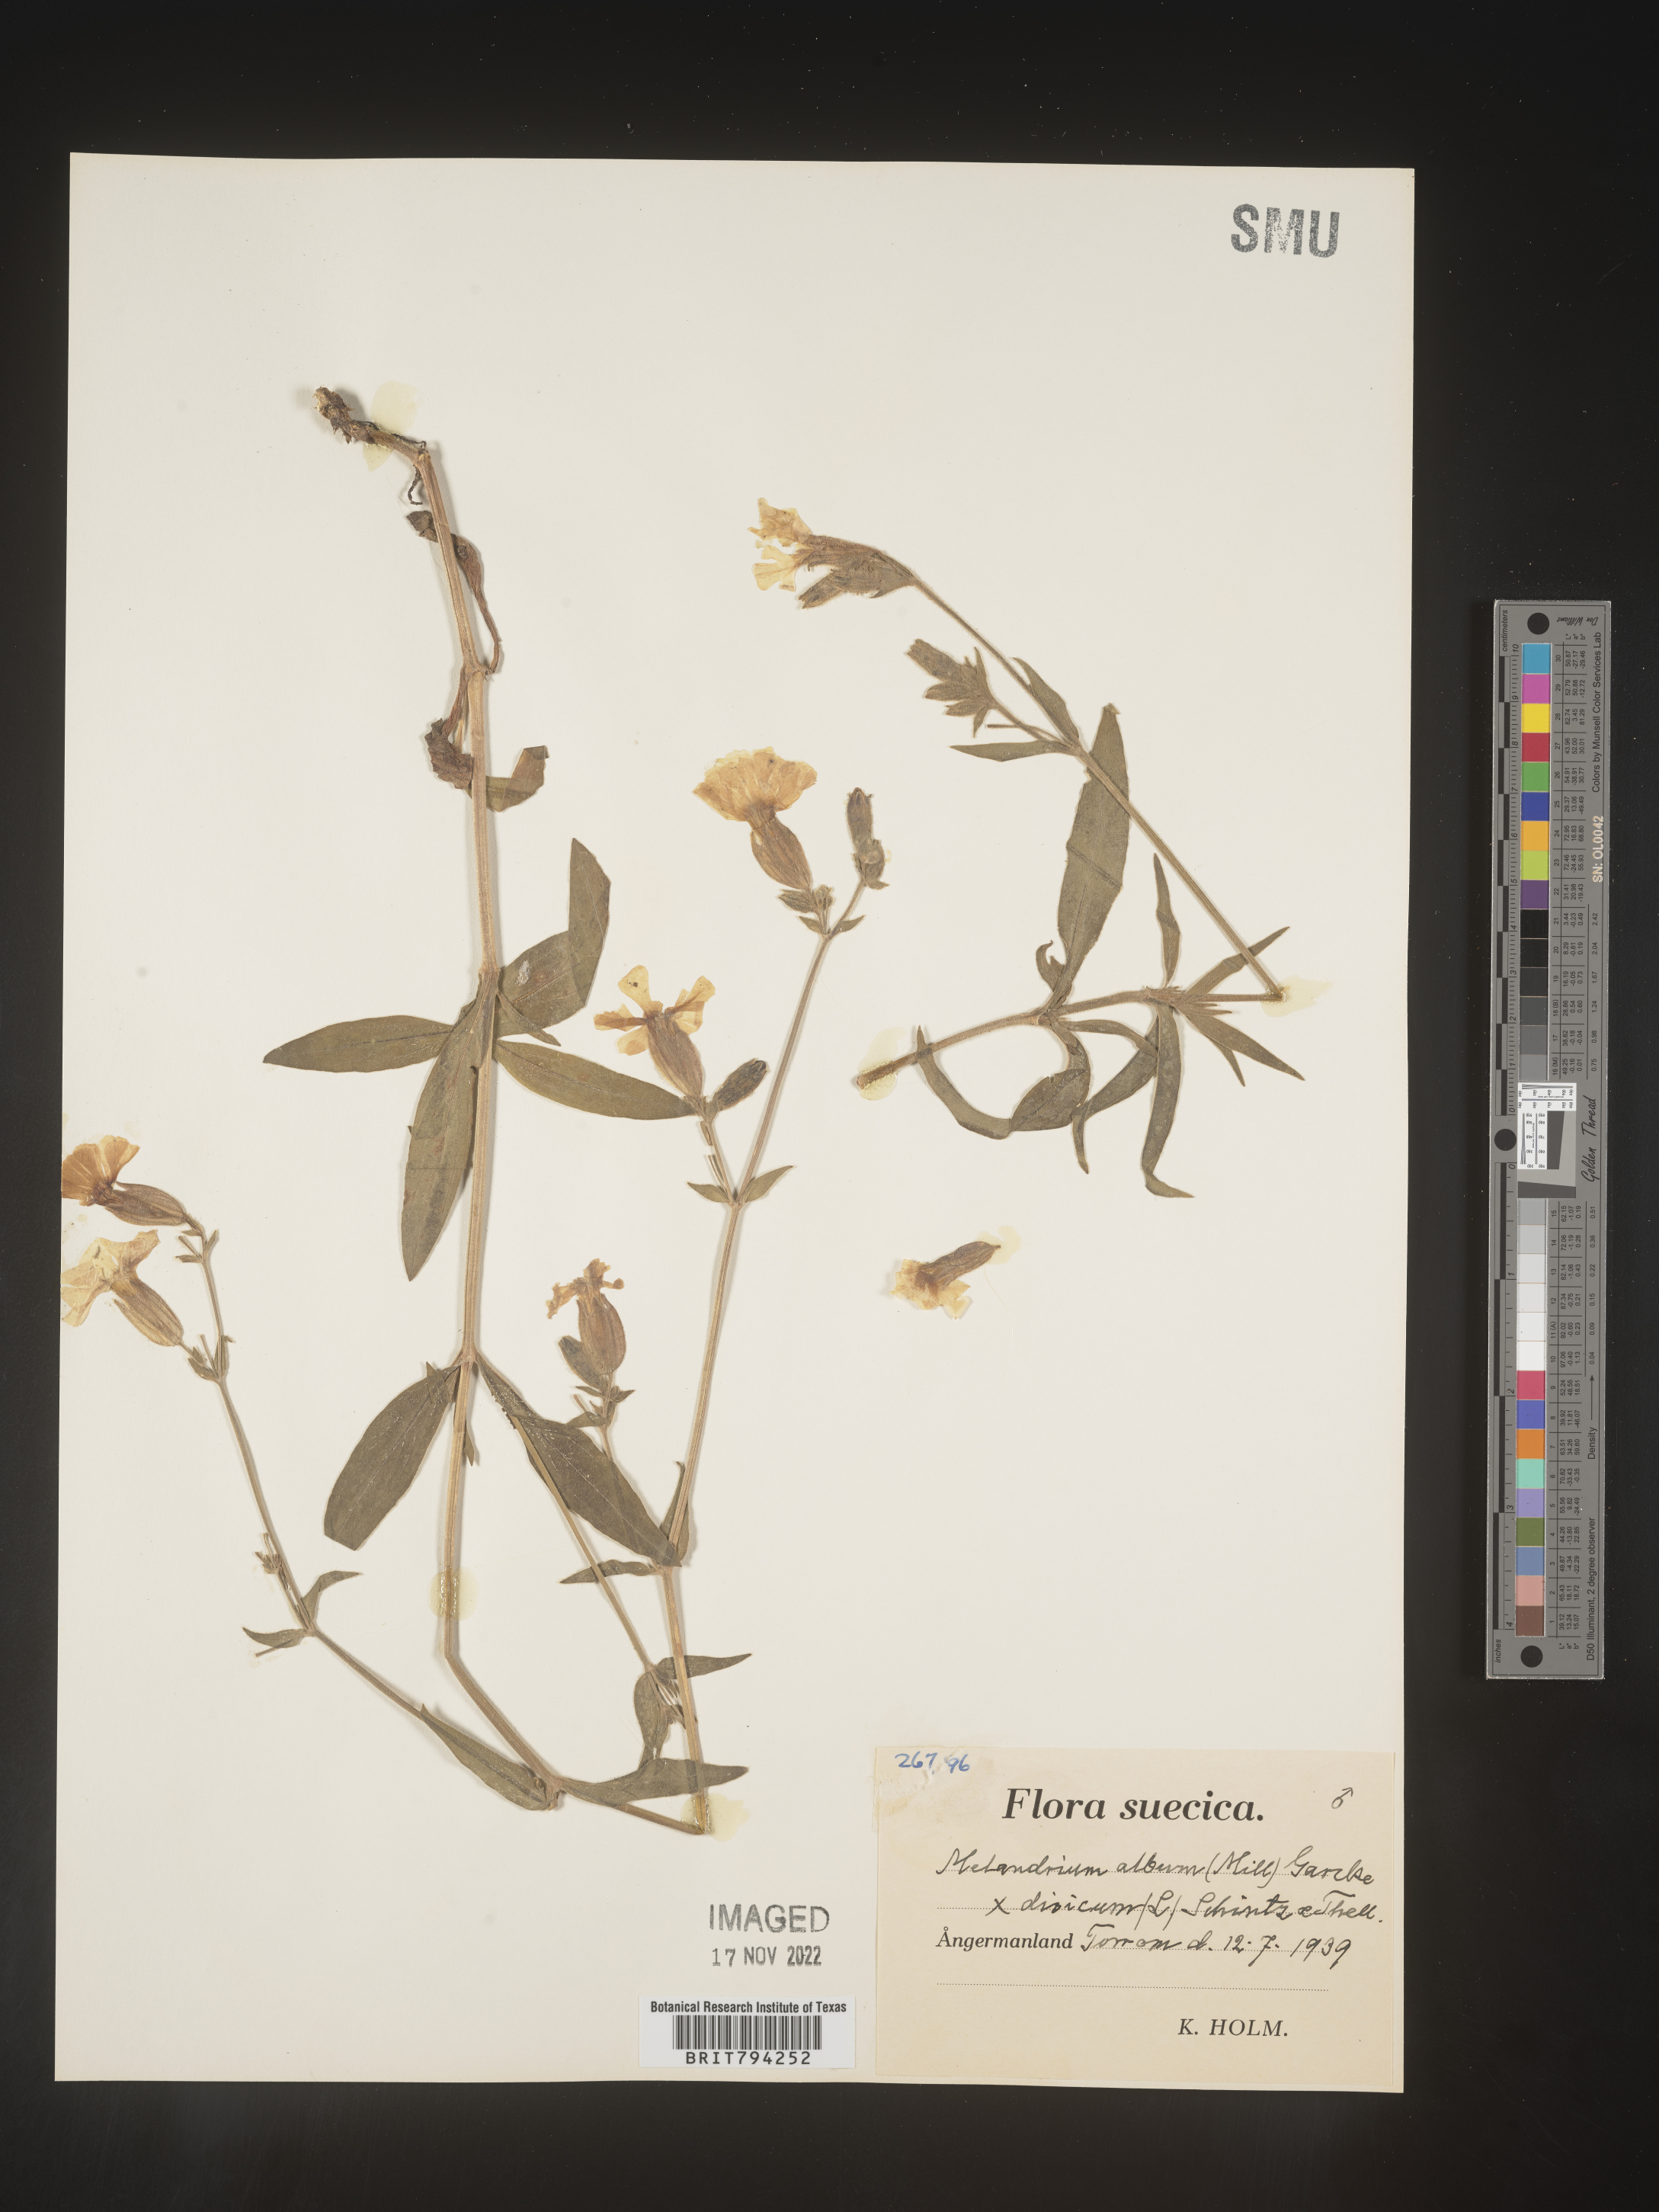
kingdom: Plantae
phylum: Tracheophyta
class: Magnoliopsida
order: Caryophyllales
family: Caryophyllaceae
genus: Silene
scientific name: Silene latifolia
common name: White campion
